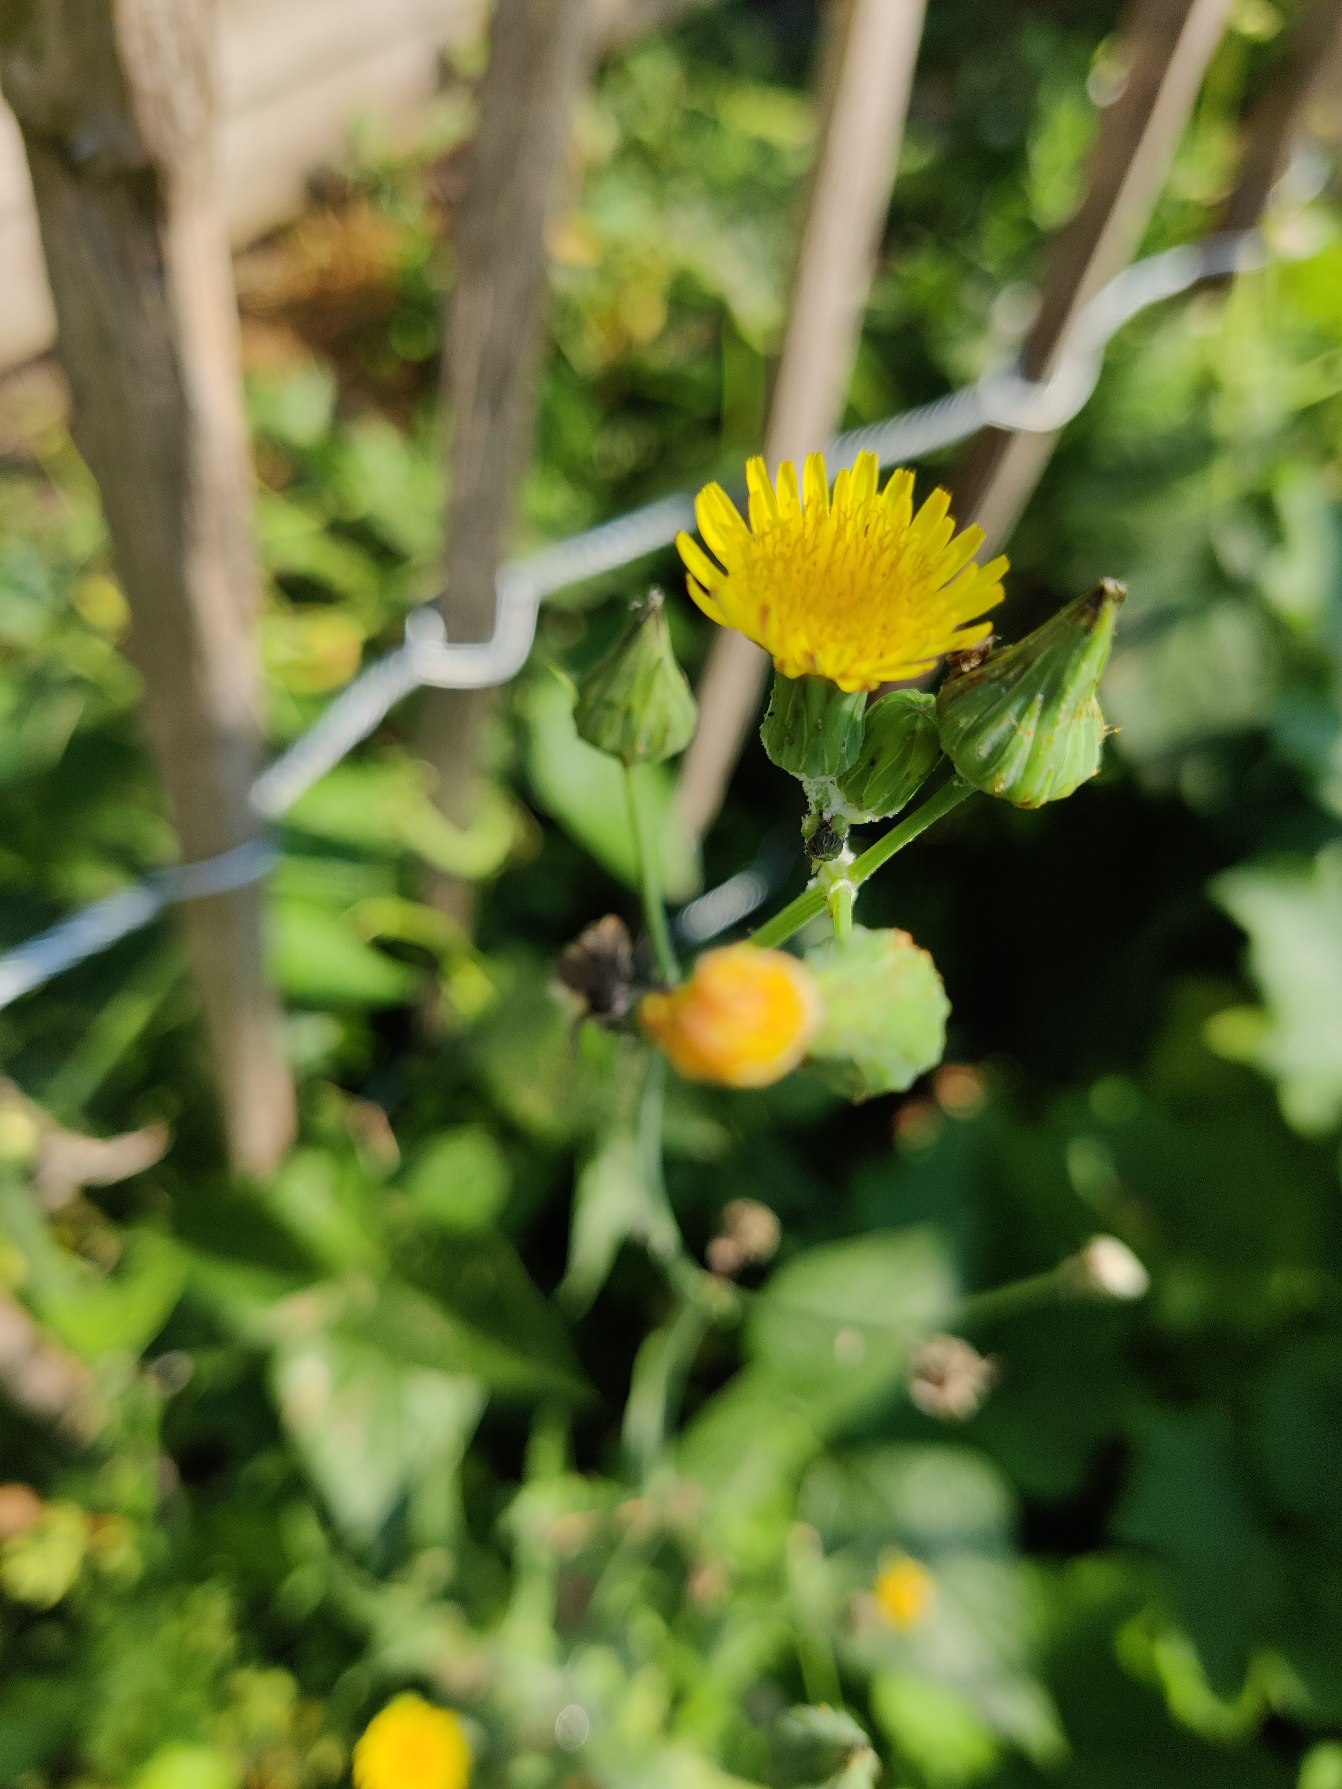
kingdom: Plantae
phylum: Tracheophyta
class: Magnoliopsida
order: Asterales
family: Asteraceae
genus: Sonchus
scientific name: Sonchus
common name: Svinemælkslægten
